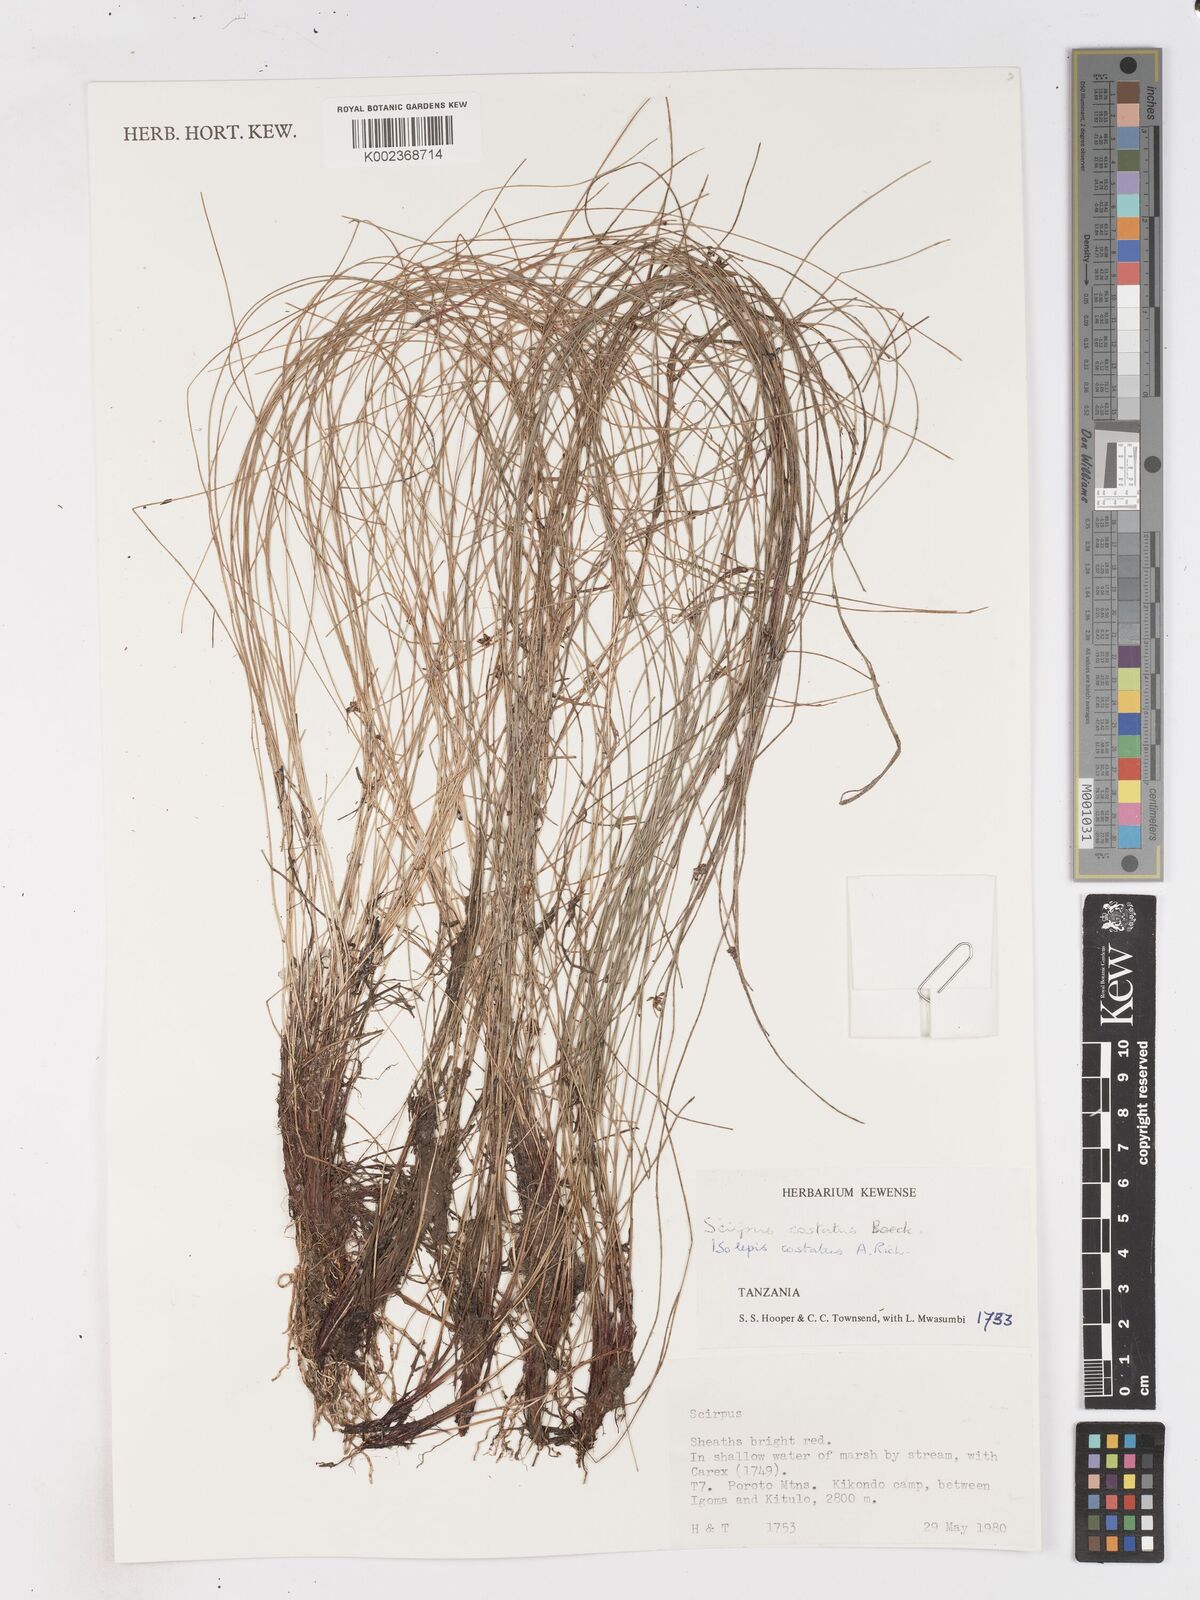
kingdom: Plantae
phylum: Tracheophyta
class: Liliopsida
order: Poales
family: Cyperaceae
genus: Isolepis
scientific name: Isolepis costata
